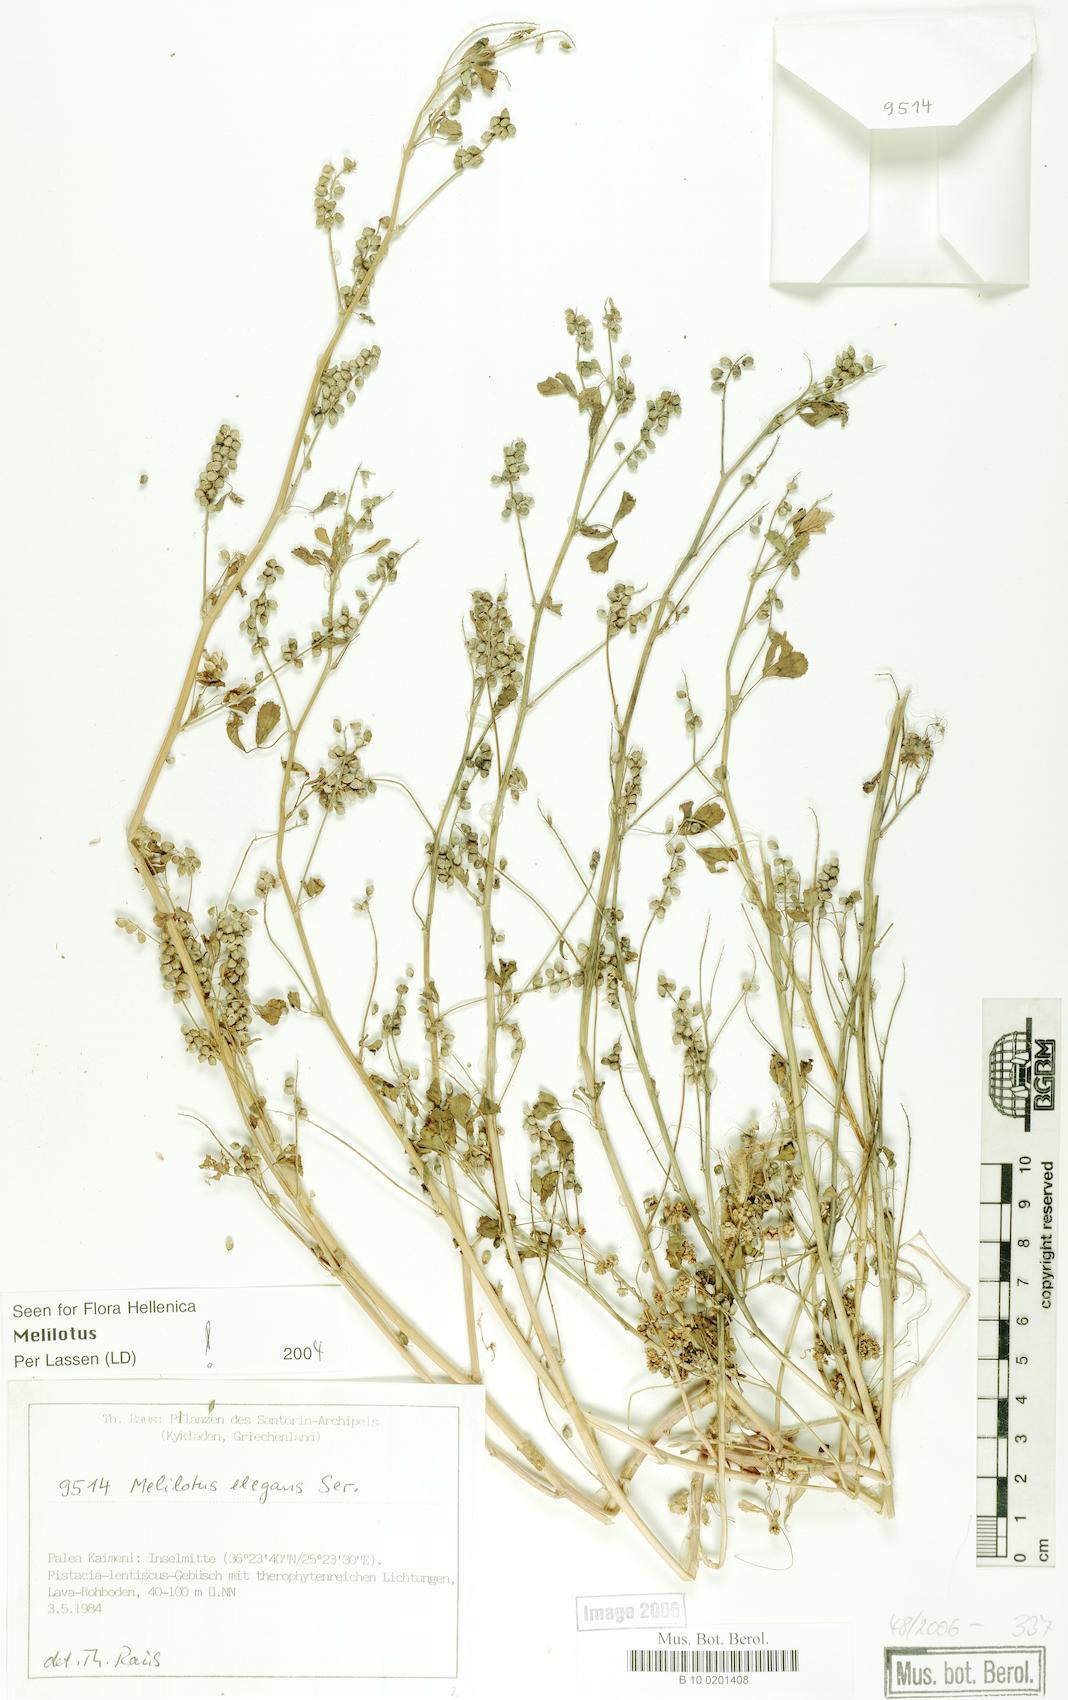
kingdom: Plantae
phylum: Tracheophyta
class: Magnoliopsida
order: Fabales
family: Fabaceae
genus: Melilotus
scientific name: Melilotus elegans
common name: Elegant sweet-clover
